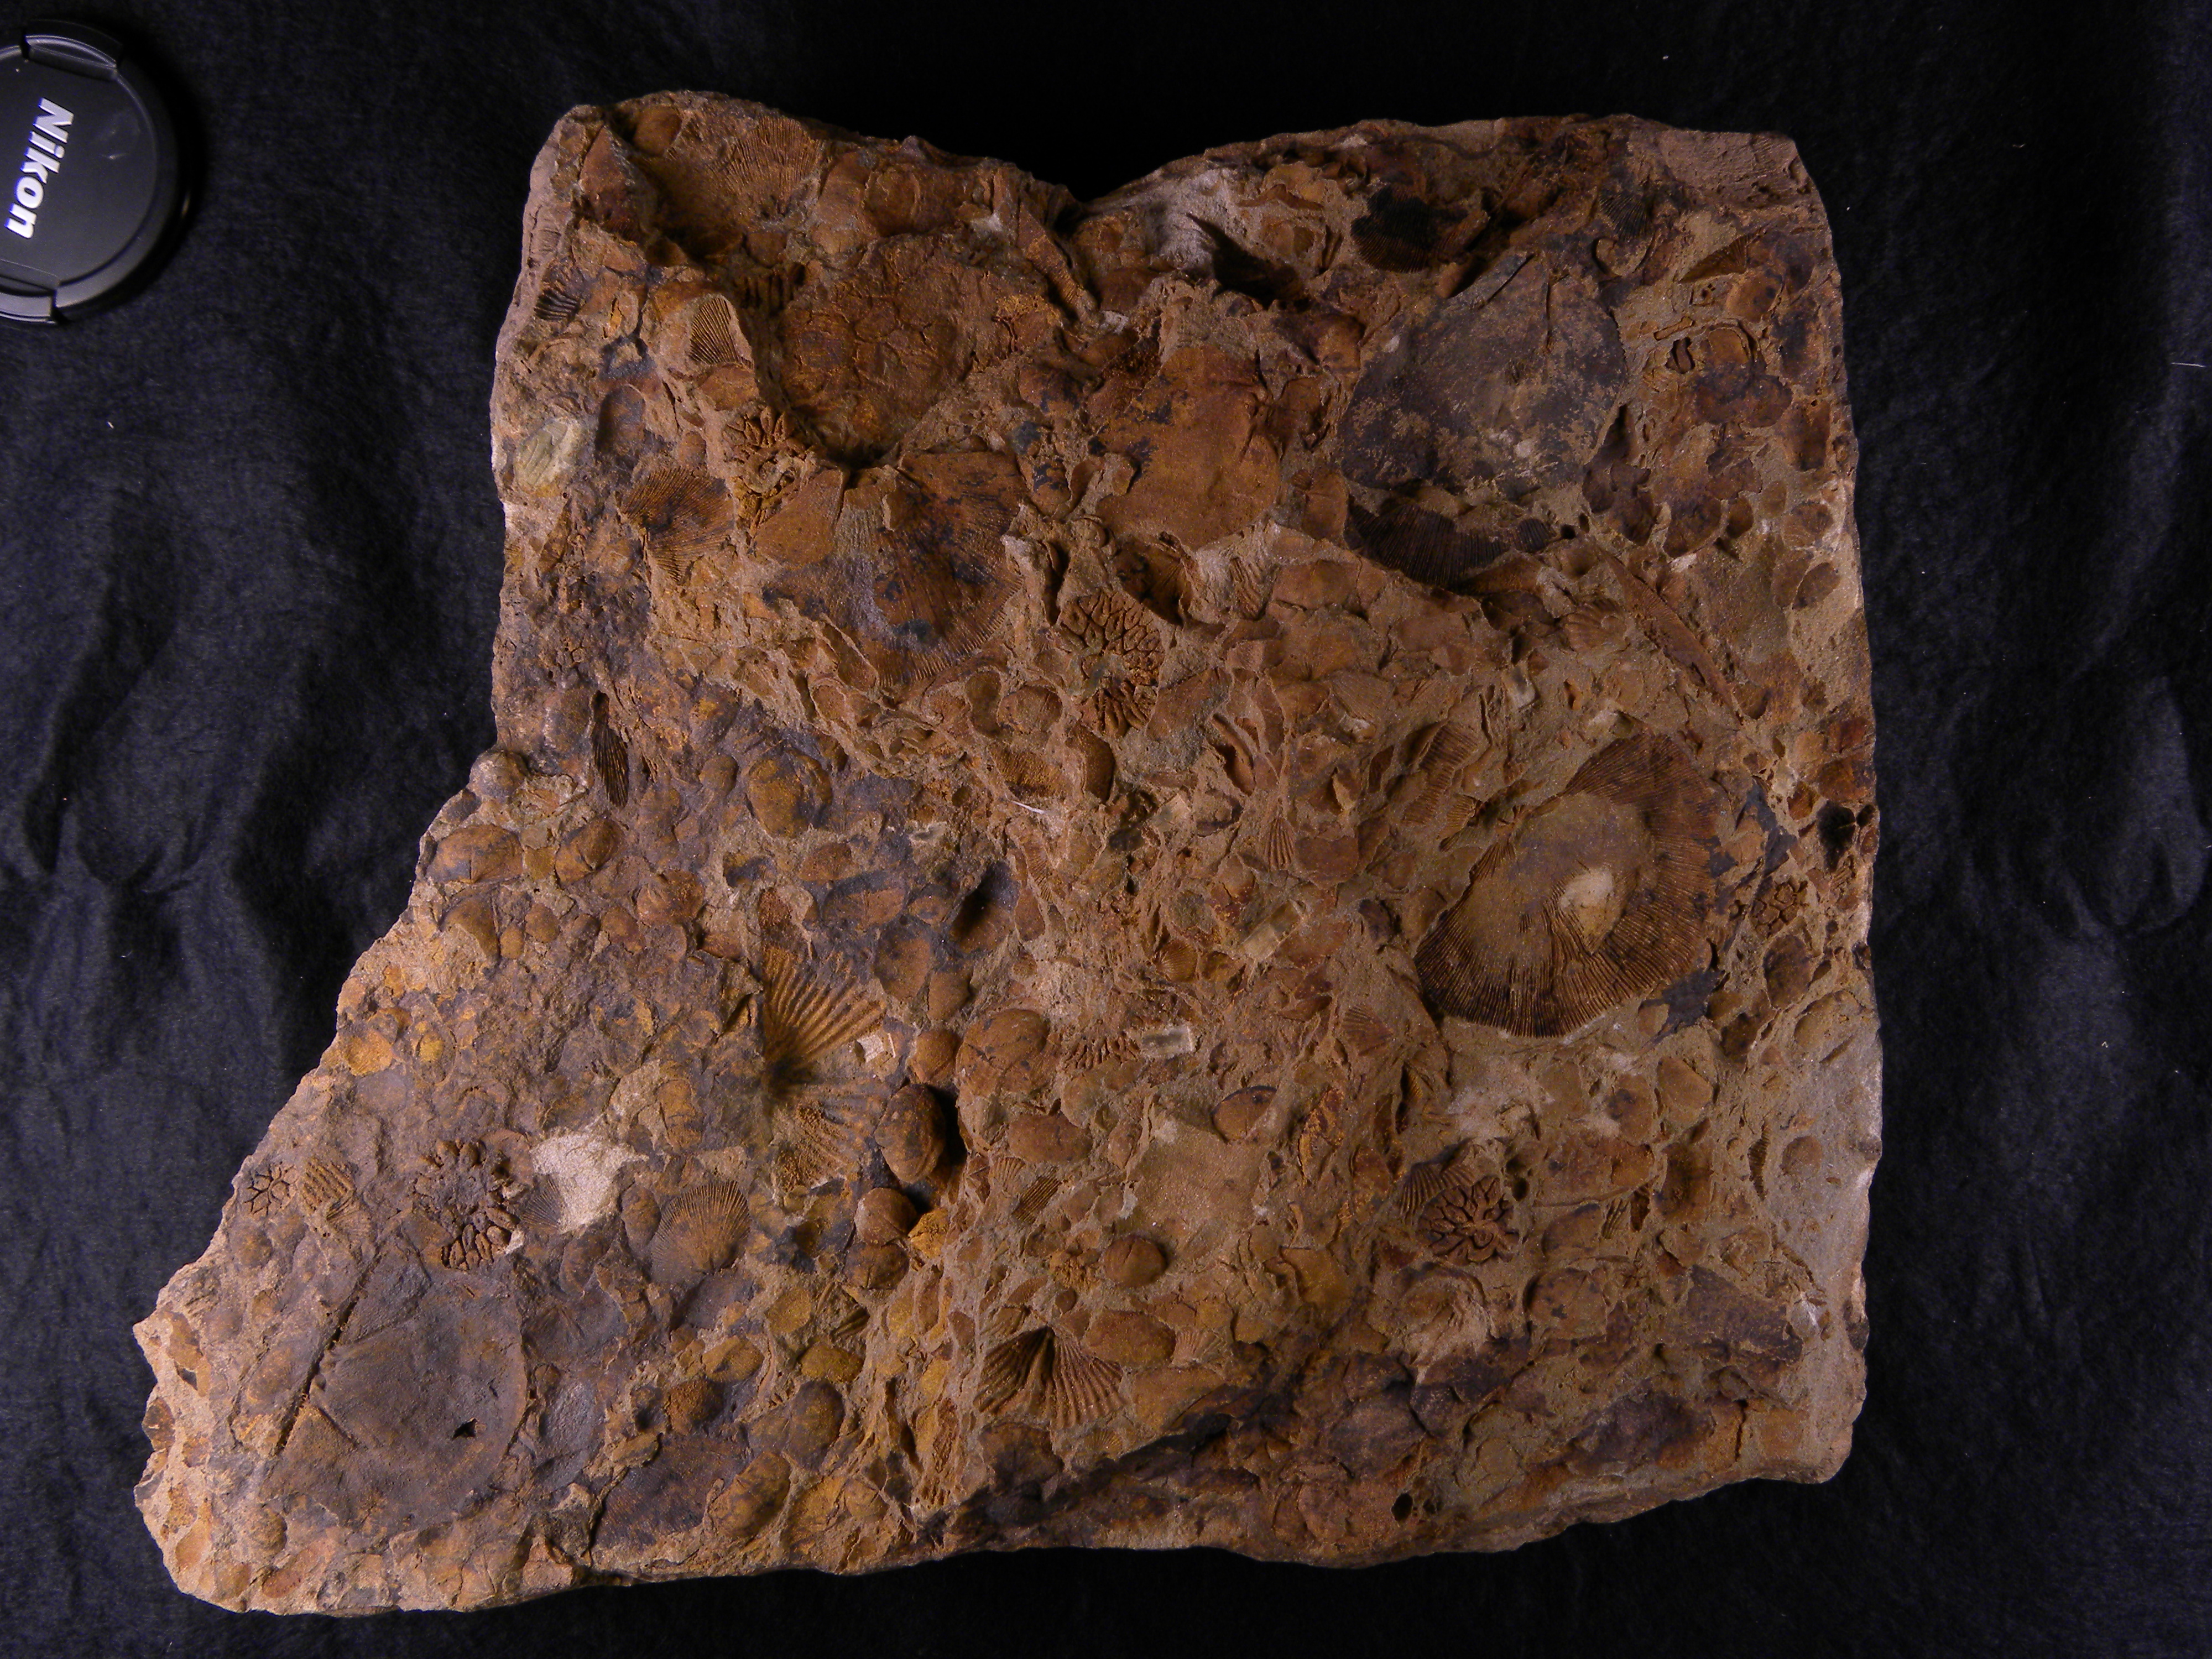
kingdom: Animalia
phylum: Cnidaria
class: Anthozoa
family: Micheliniidae
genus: Pleurodictyum
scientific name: Pleurodictyum
